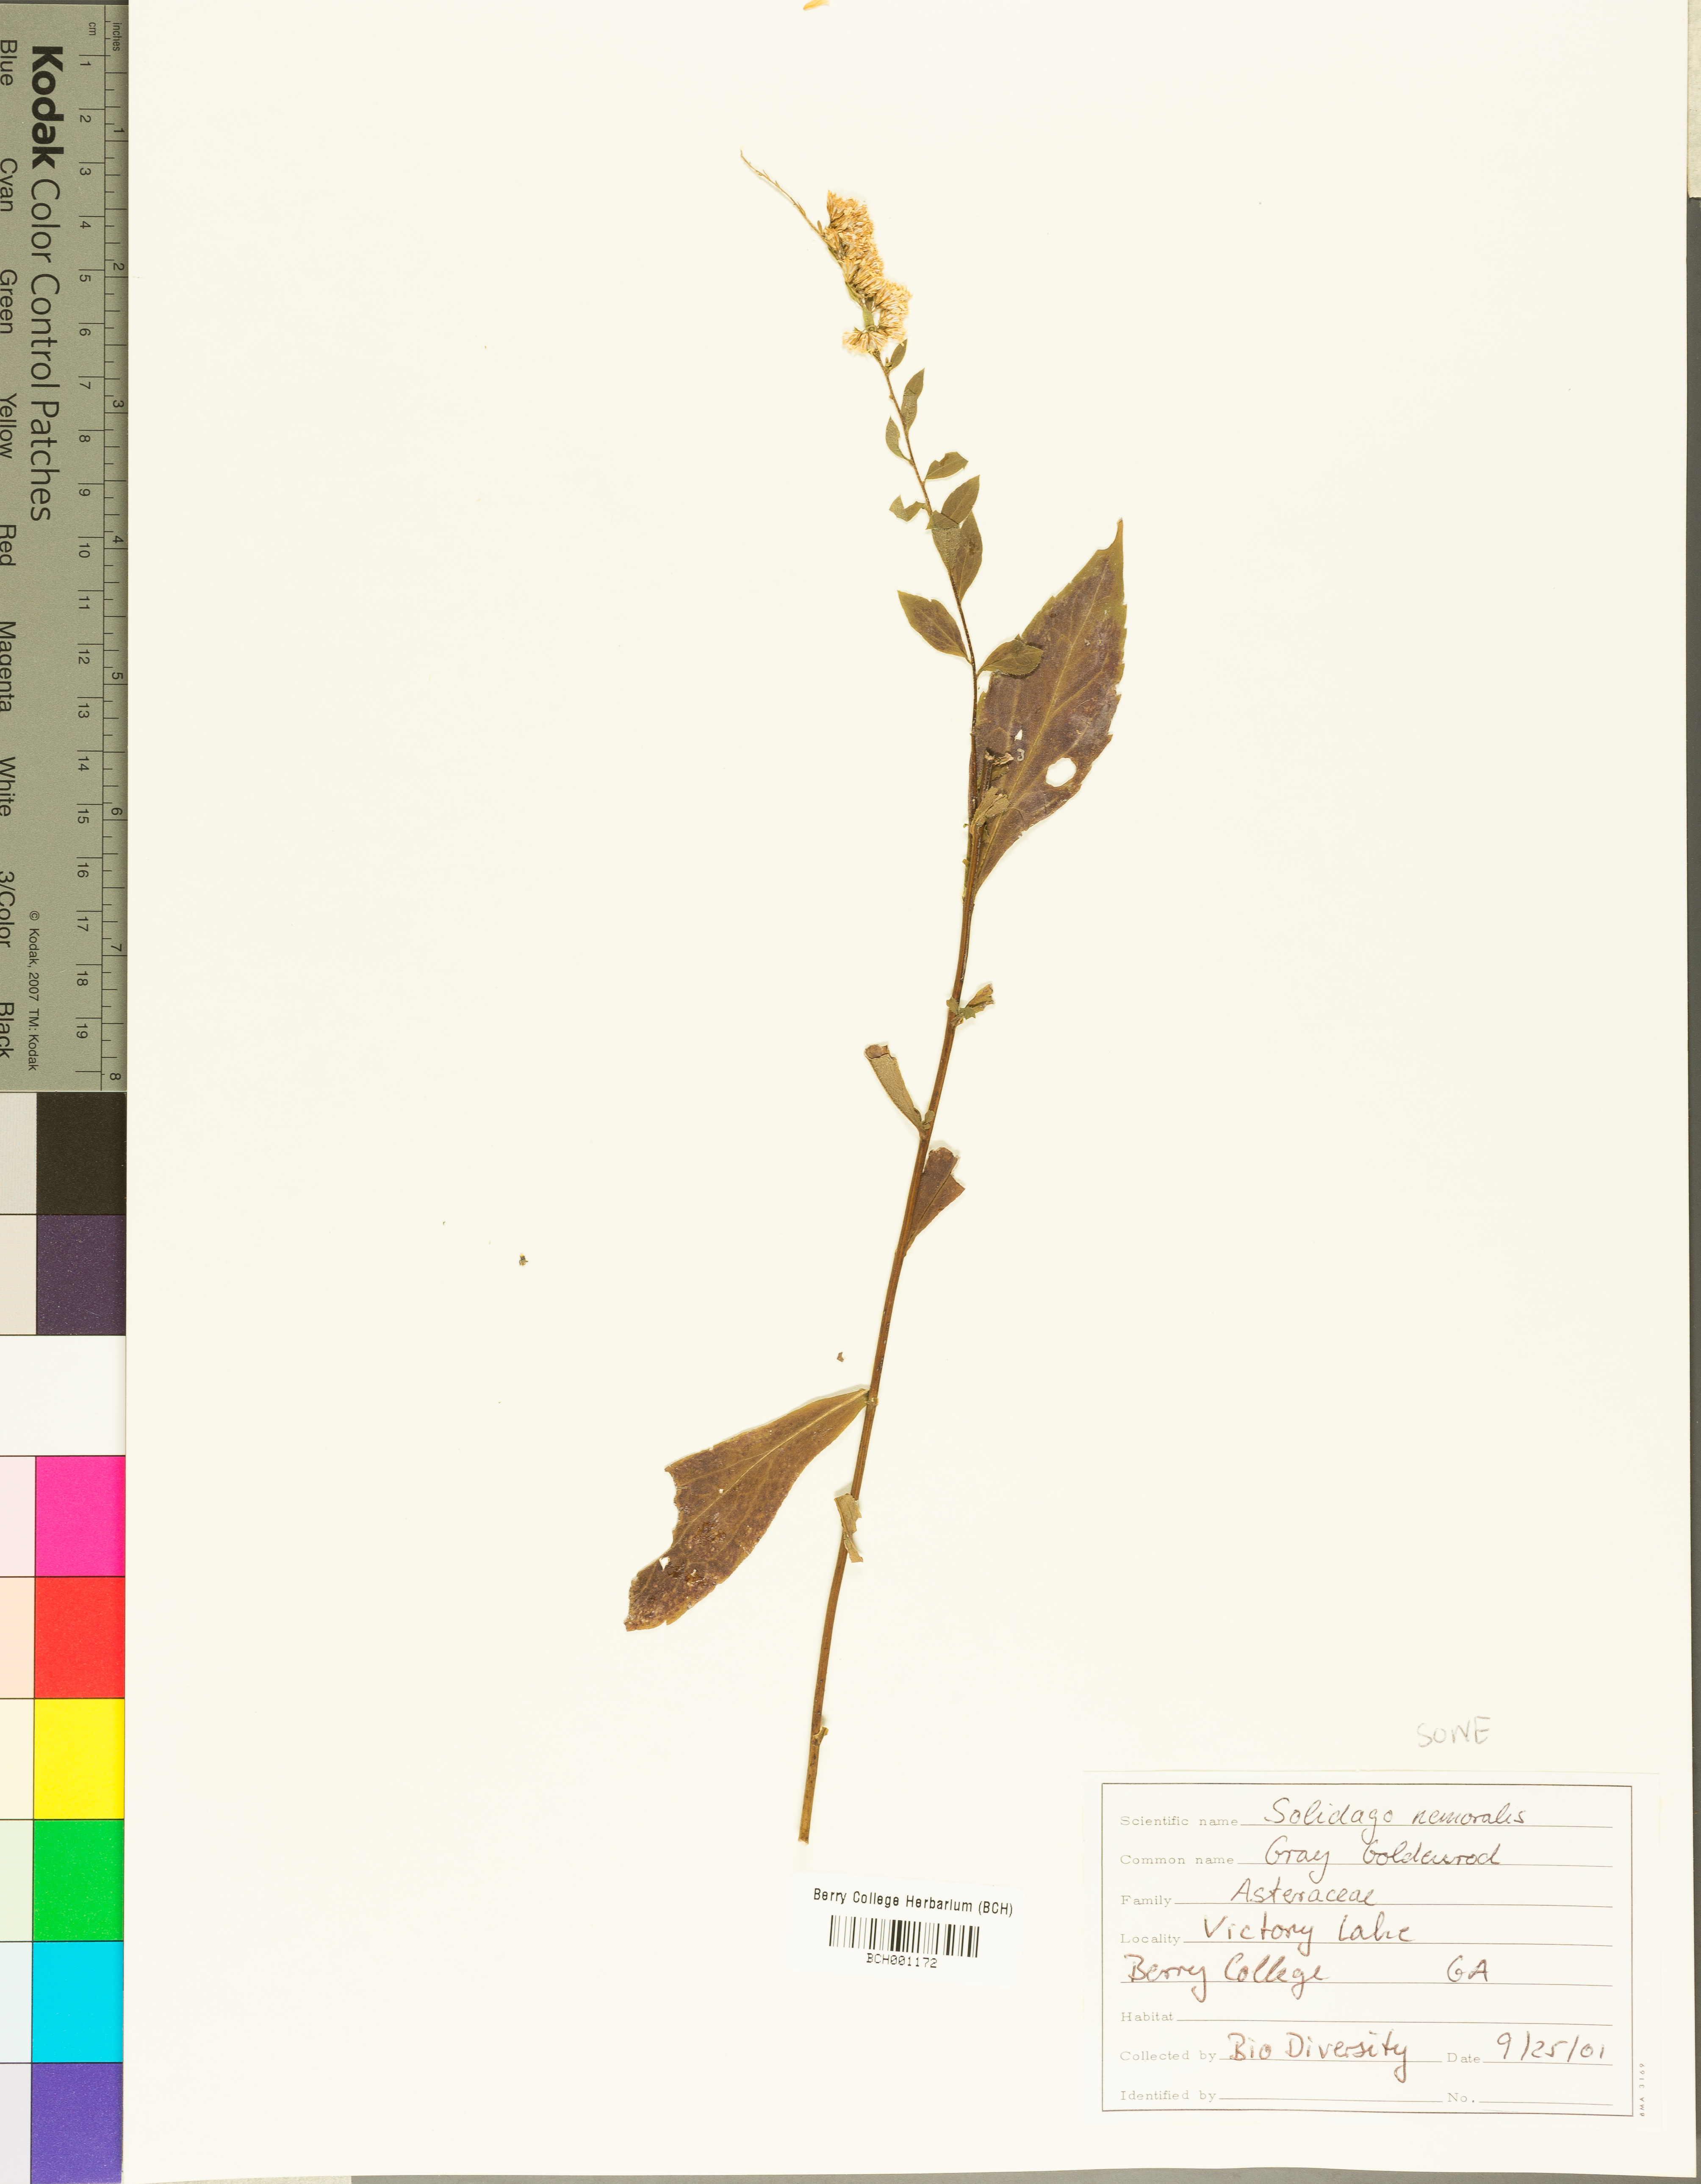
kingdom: Plantae
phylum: Tracheophyta
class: Magnoliopsida
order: Asterales
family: Asteraceae
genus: Solidago
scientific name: Solidago nemoralis
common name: Grey goldenrod
